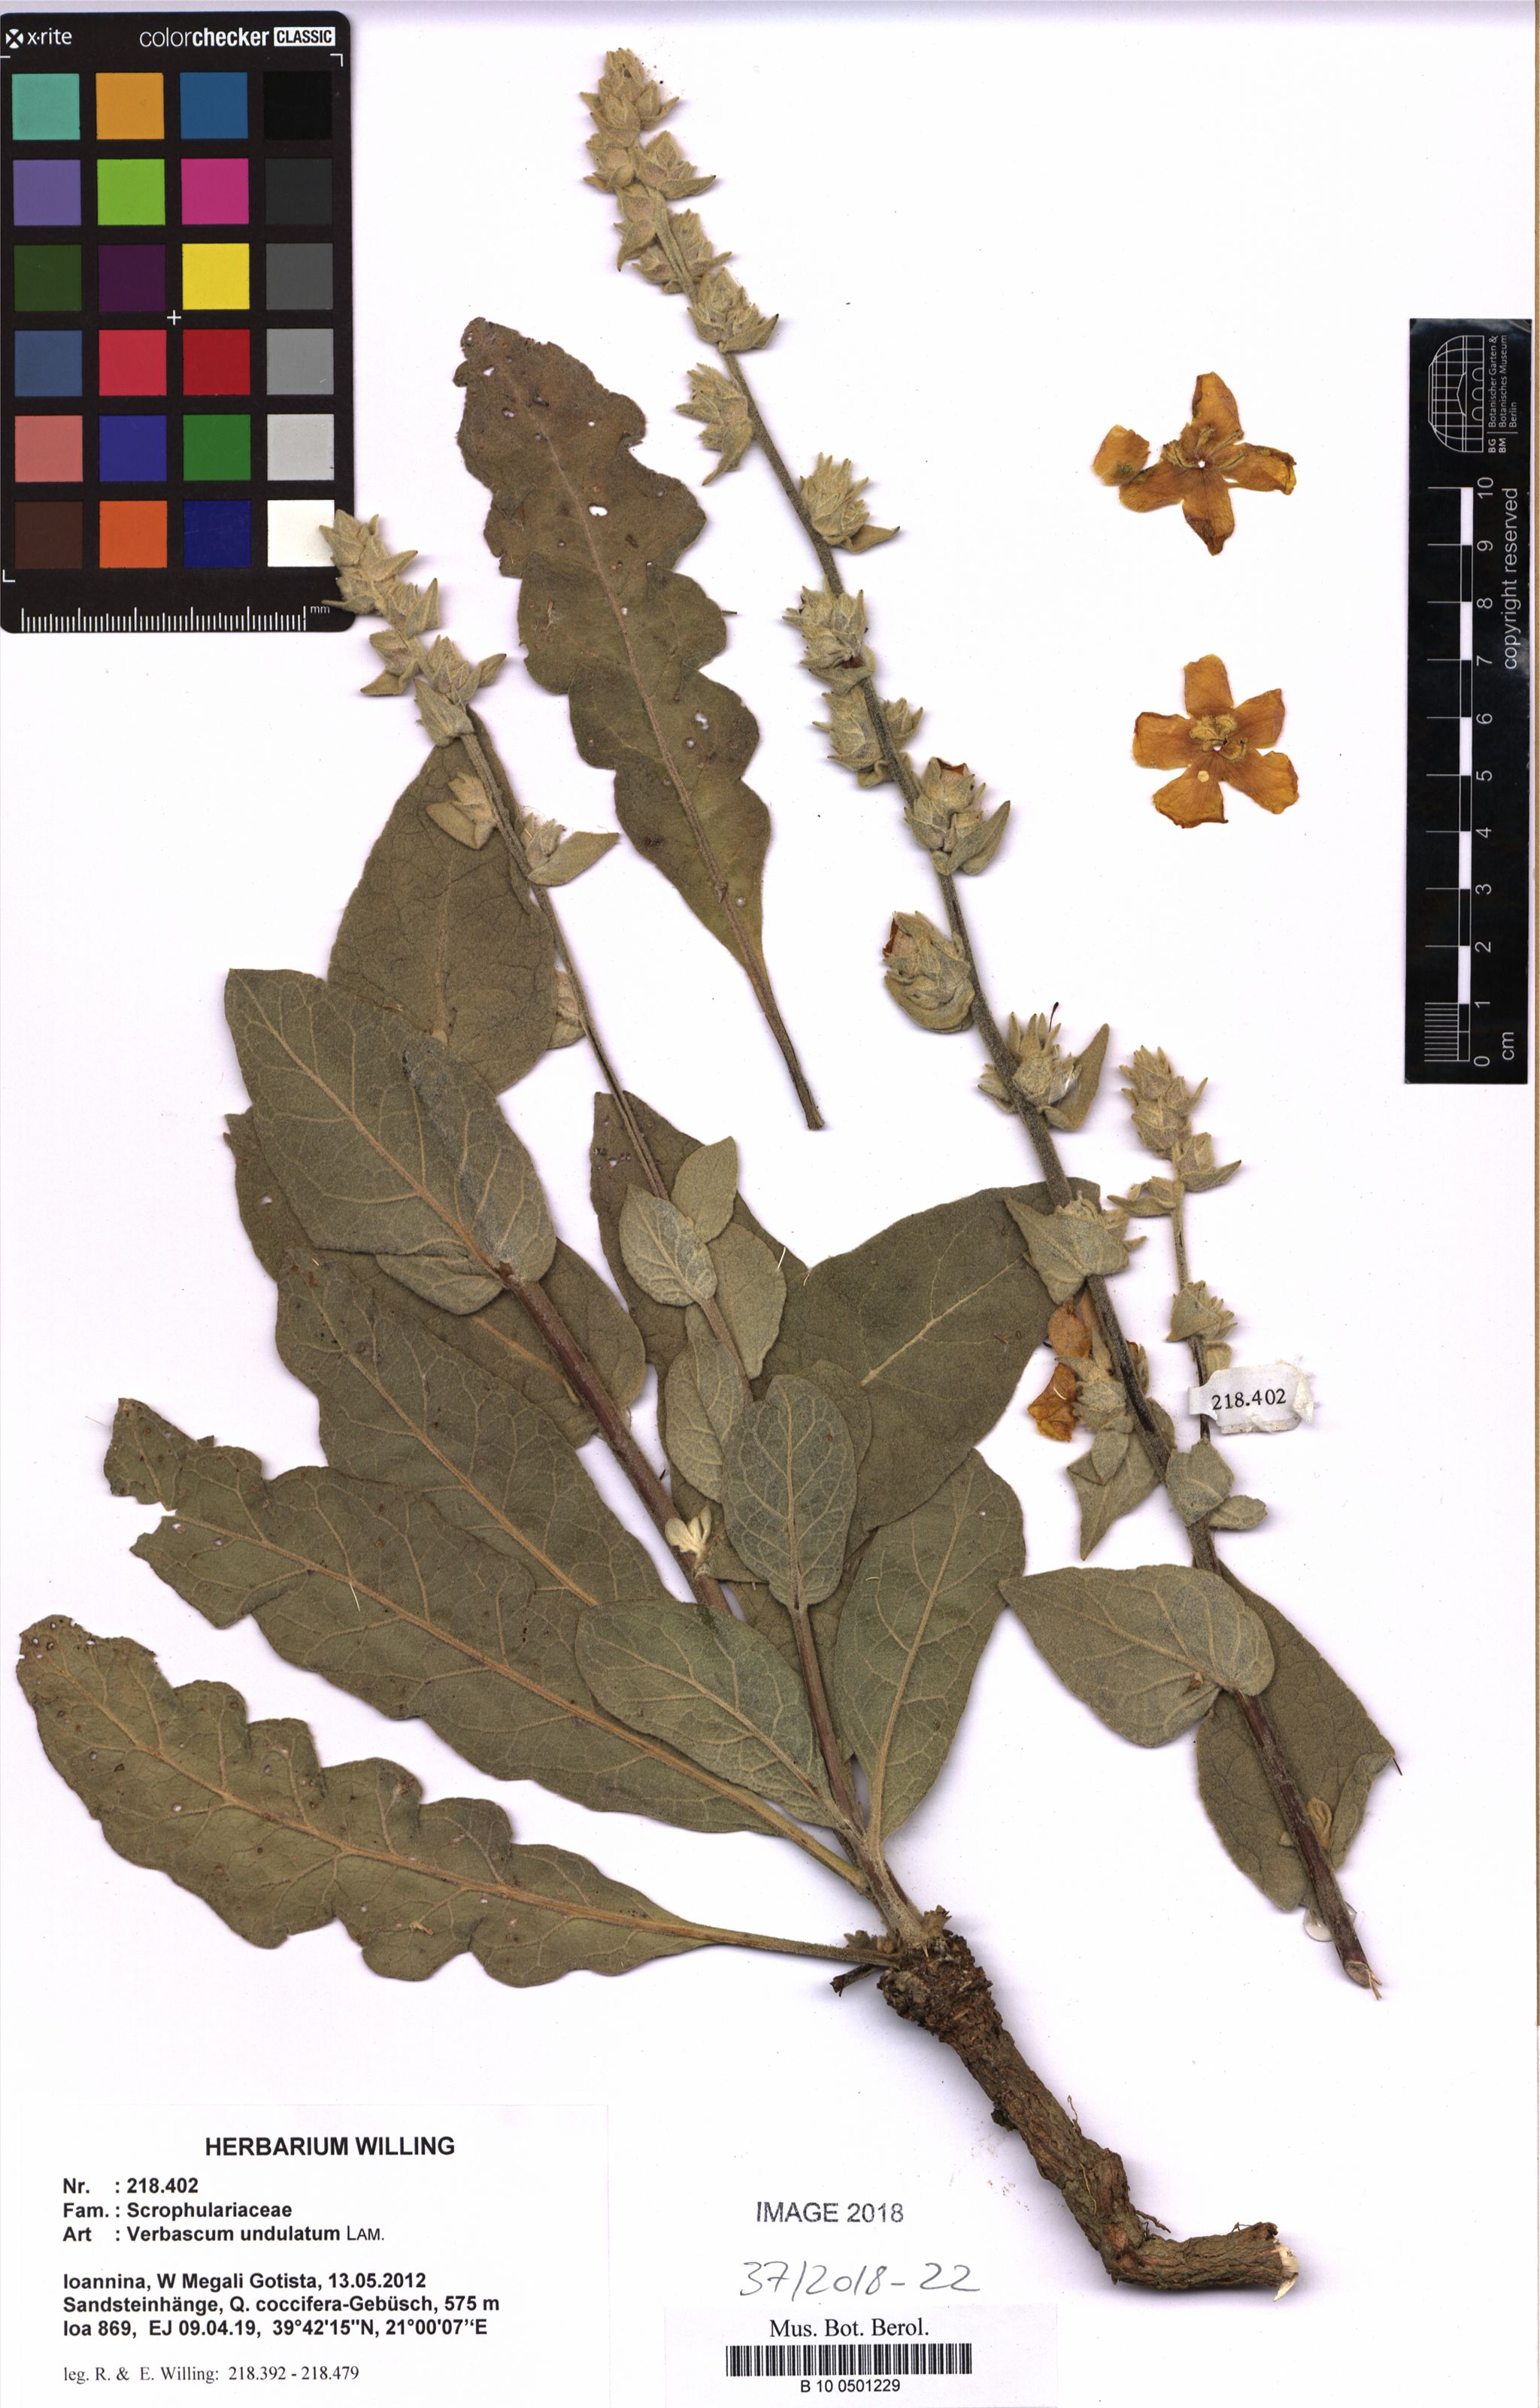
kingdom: Plantae
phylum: Tracheophyta
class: Magnoliopsida
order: Lamiales
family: Scrophulariaceae
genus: Verbascum
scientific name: Verbascum undulatum
